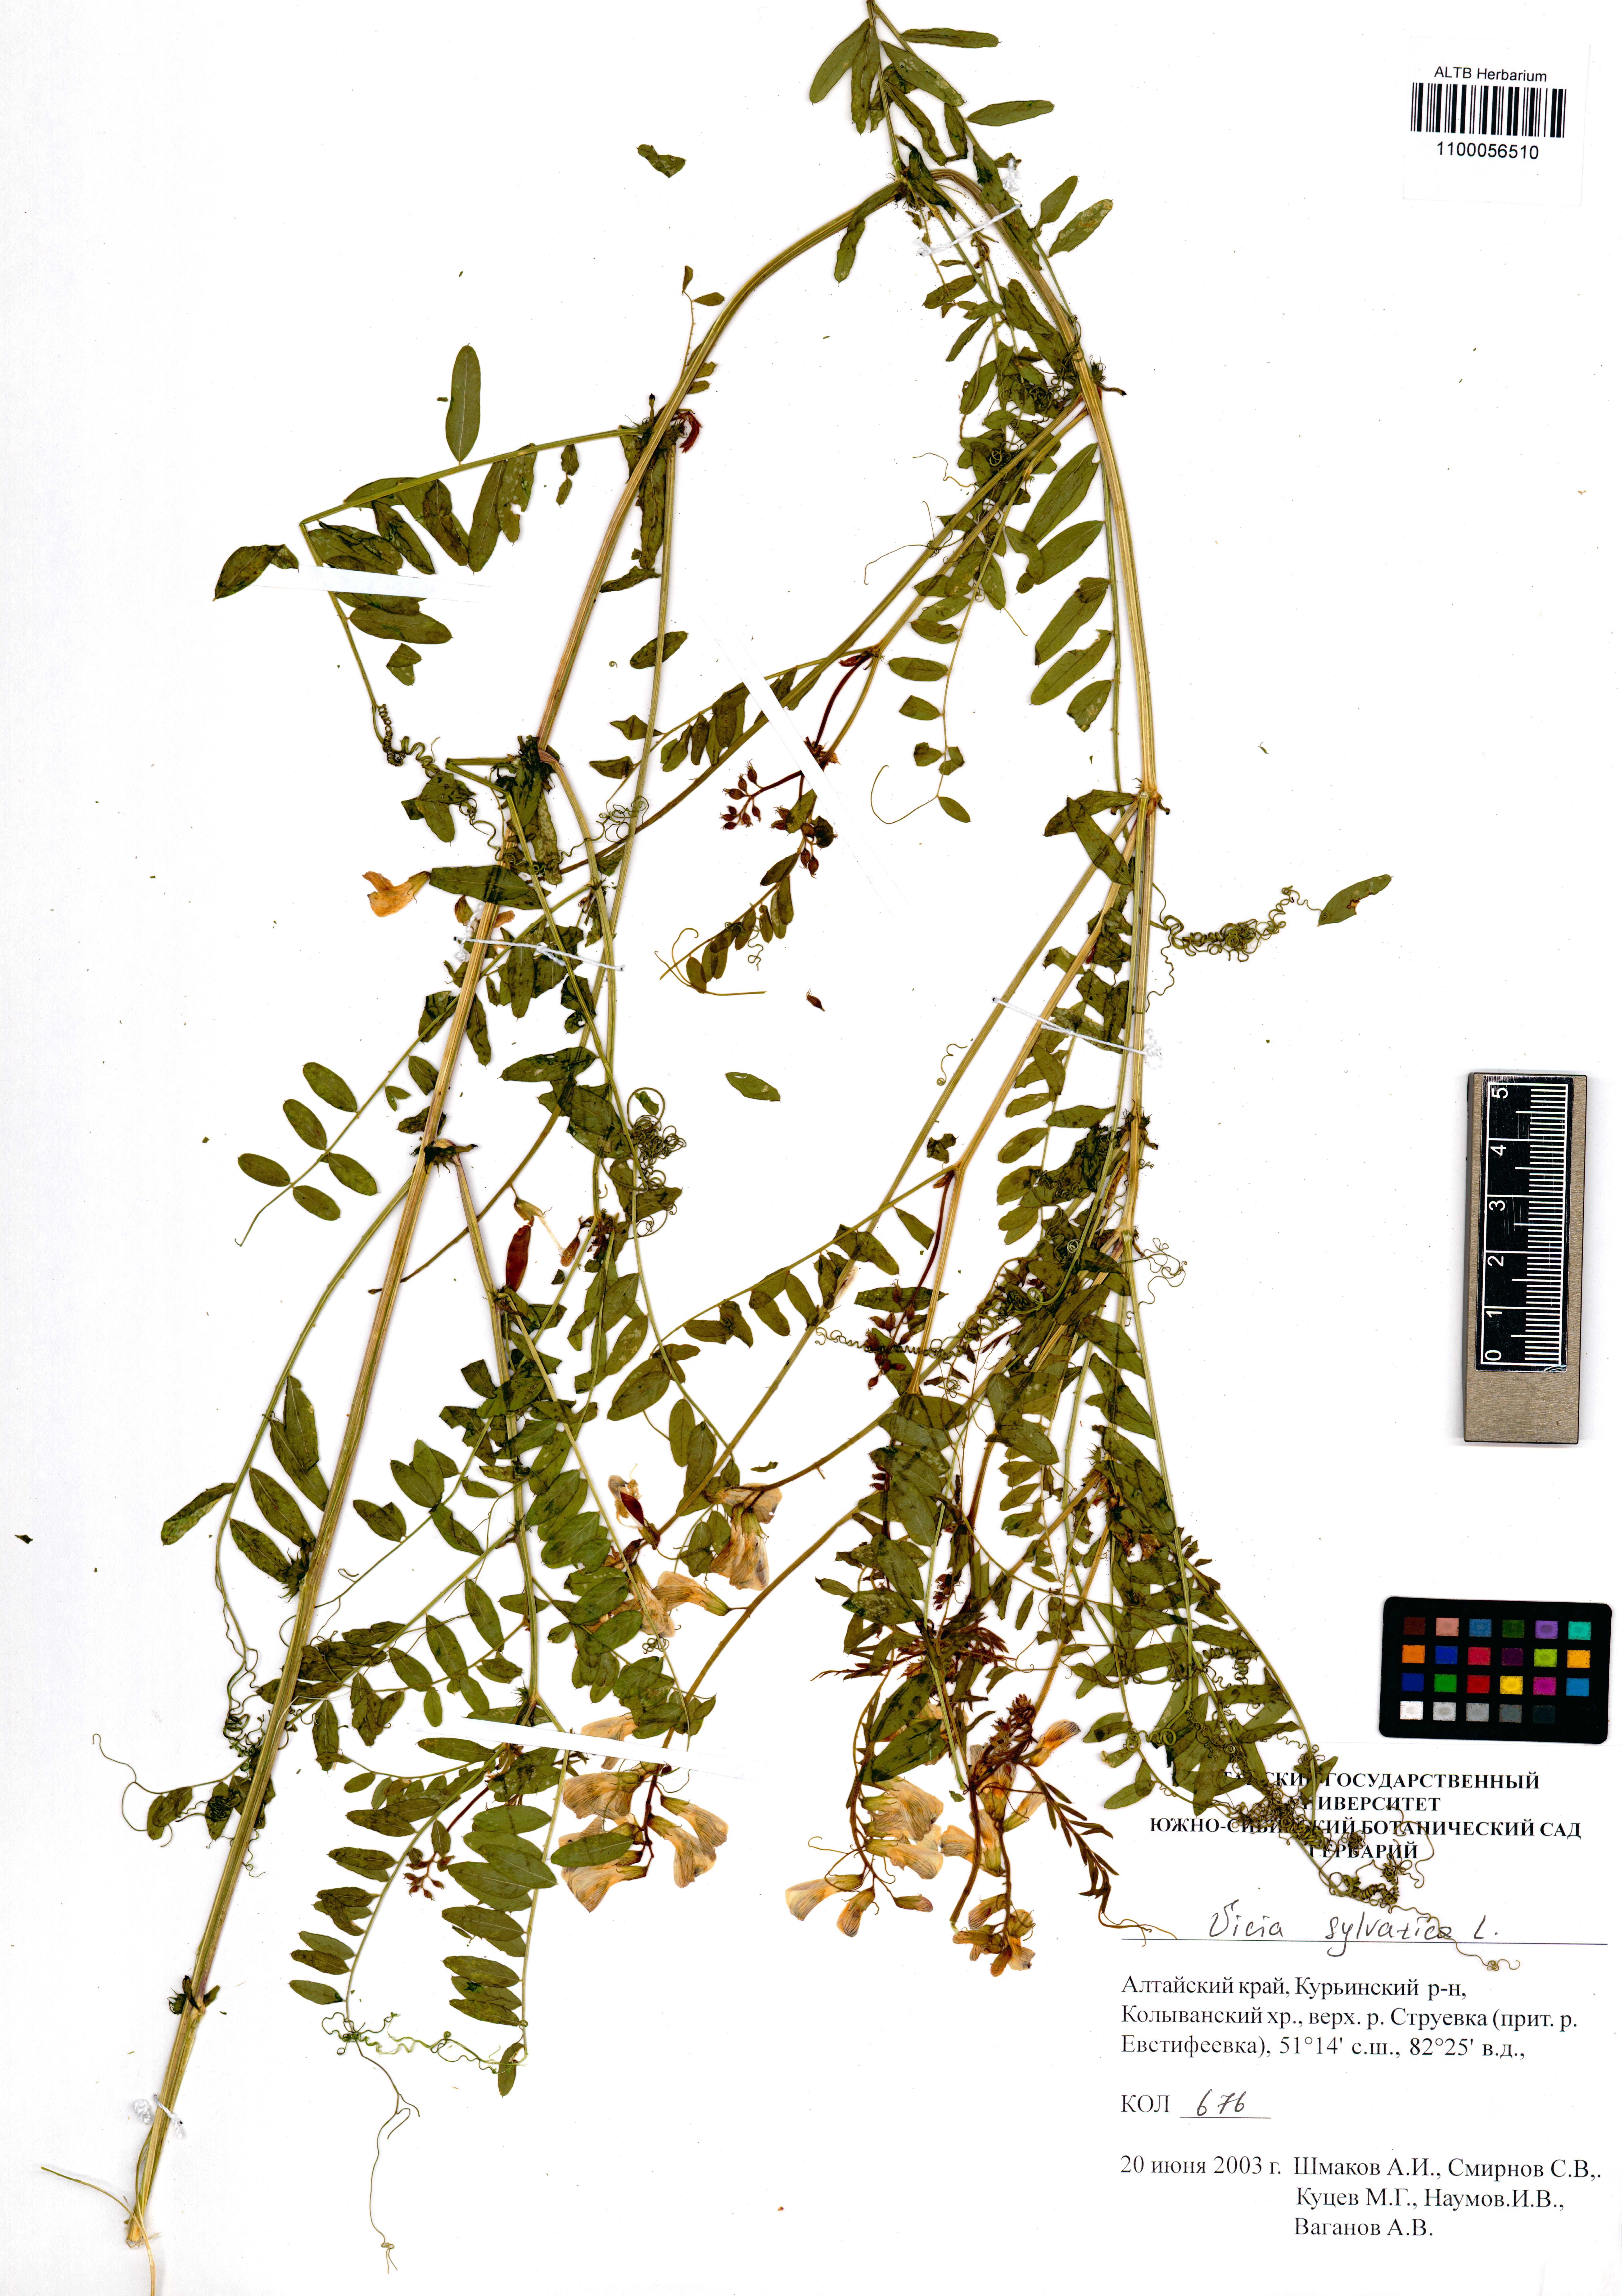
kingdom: Plantae
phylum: Tracheophyta
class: Magnoliopsida
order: Fabales
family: Fabaceae
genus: Vicia
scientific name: Vicia sylvatica
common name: Wood vetch
